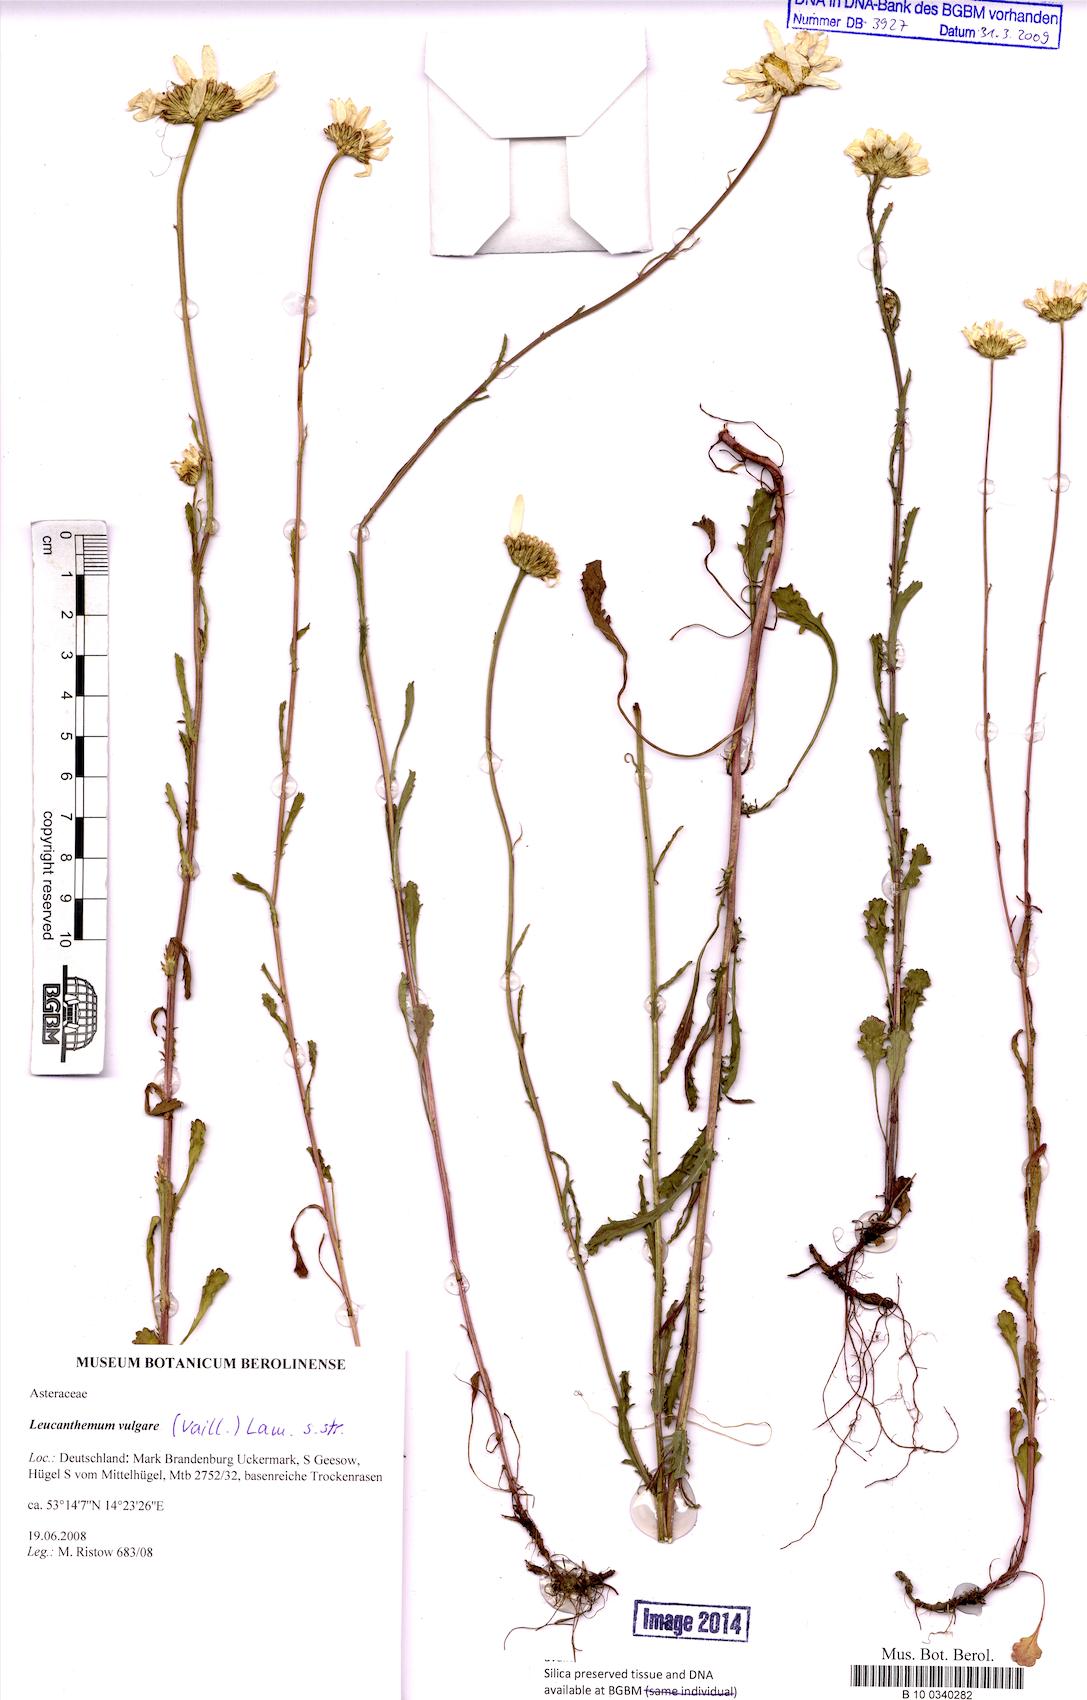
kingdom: Plantae
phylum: Tracheophyta
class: Magnoliopsida
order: Asterales
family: Asteraceae
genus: Leucanthemum
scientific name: Leucanthemum vulgare
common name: Oxeye daisy
